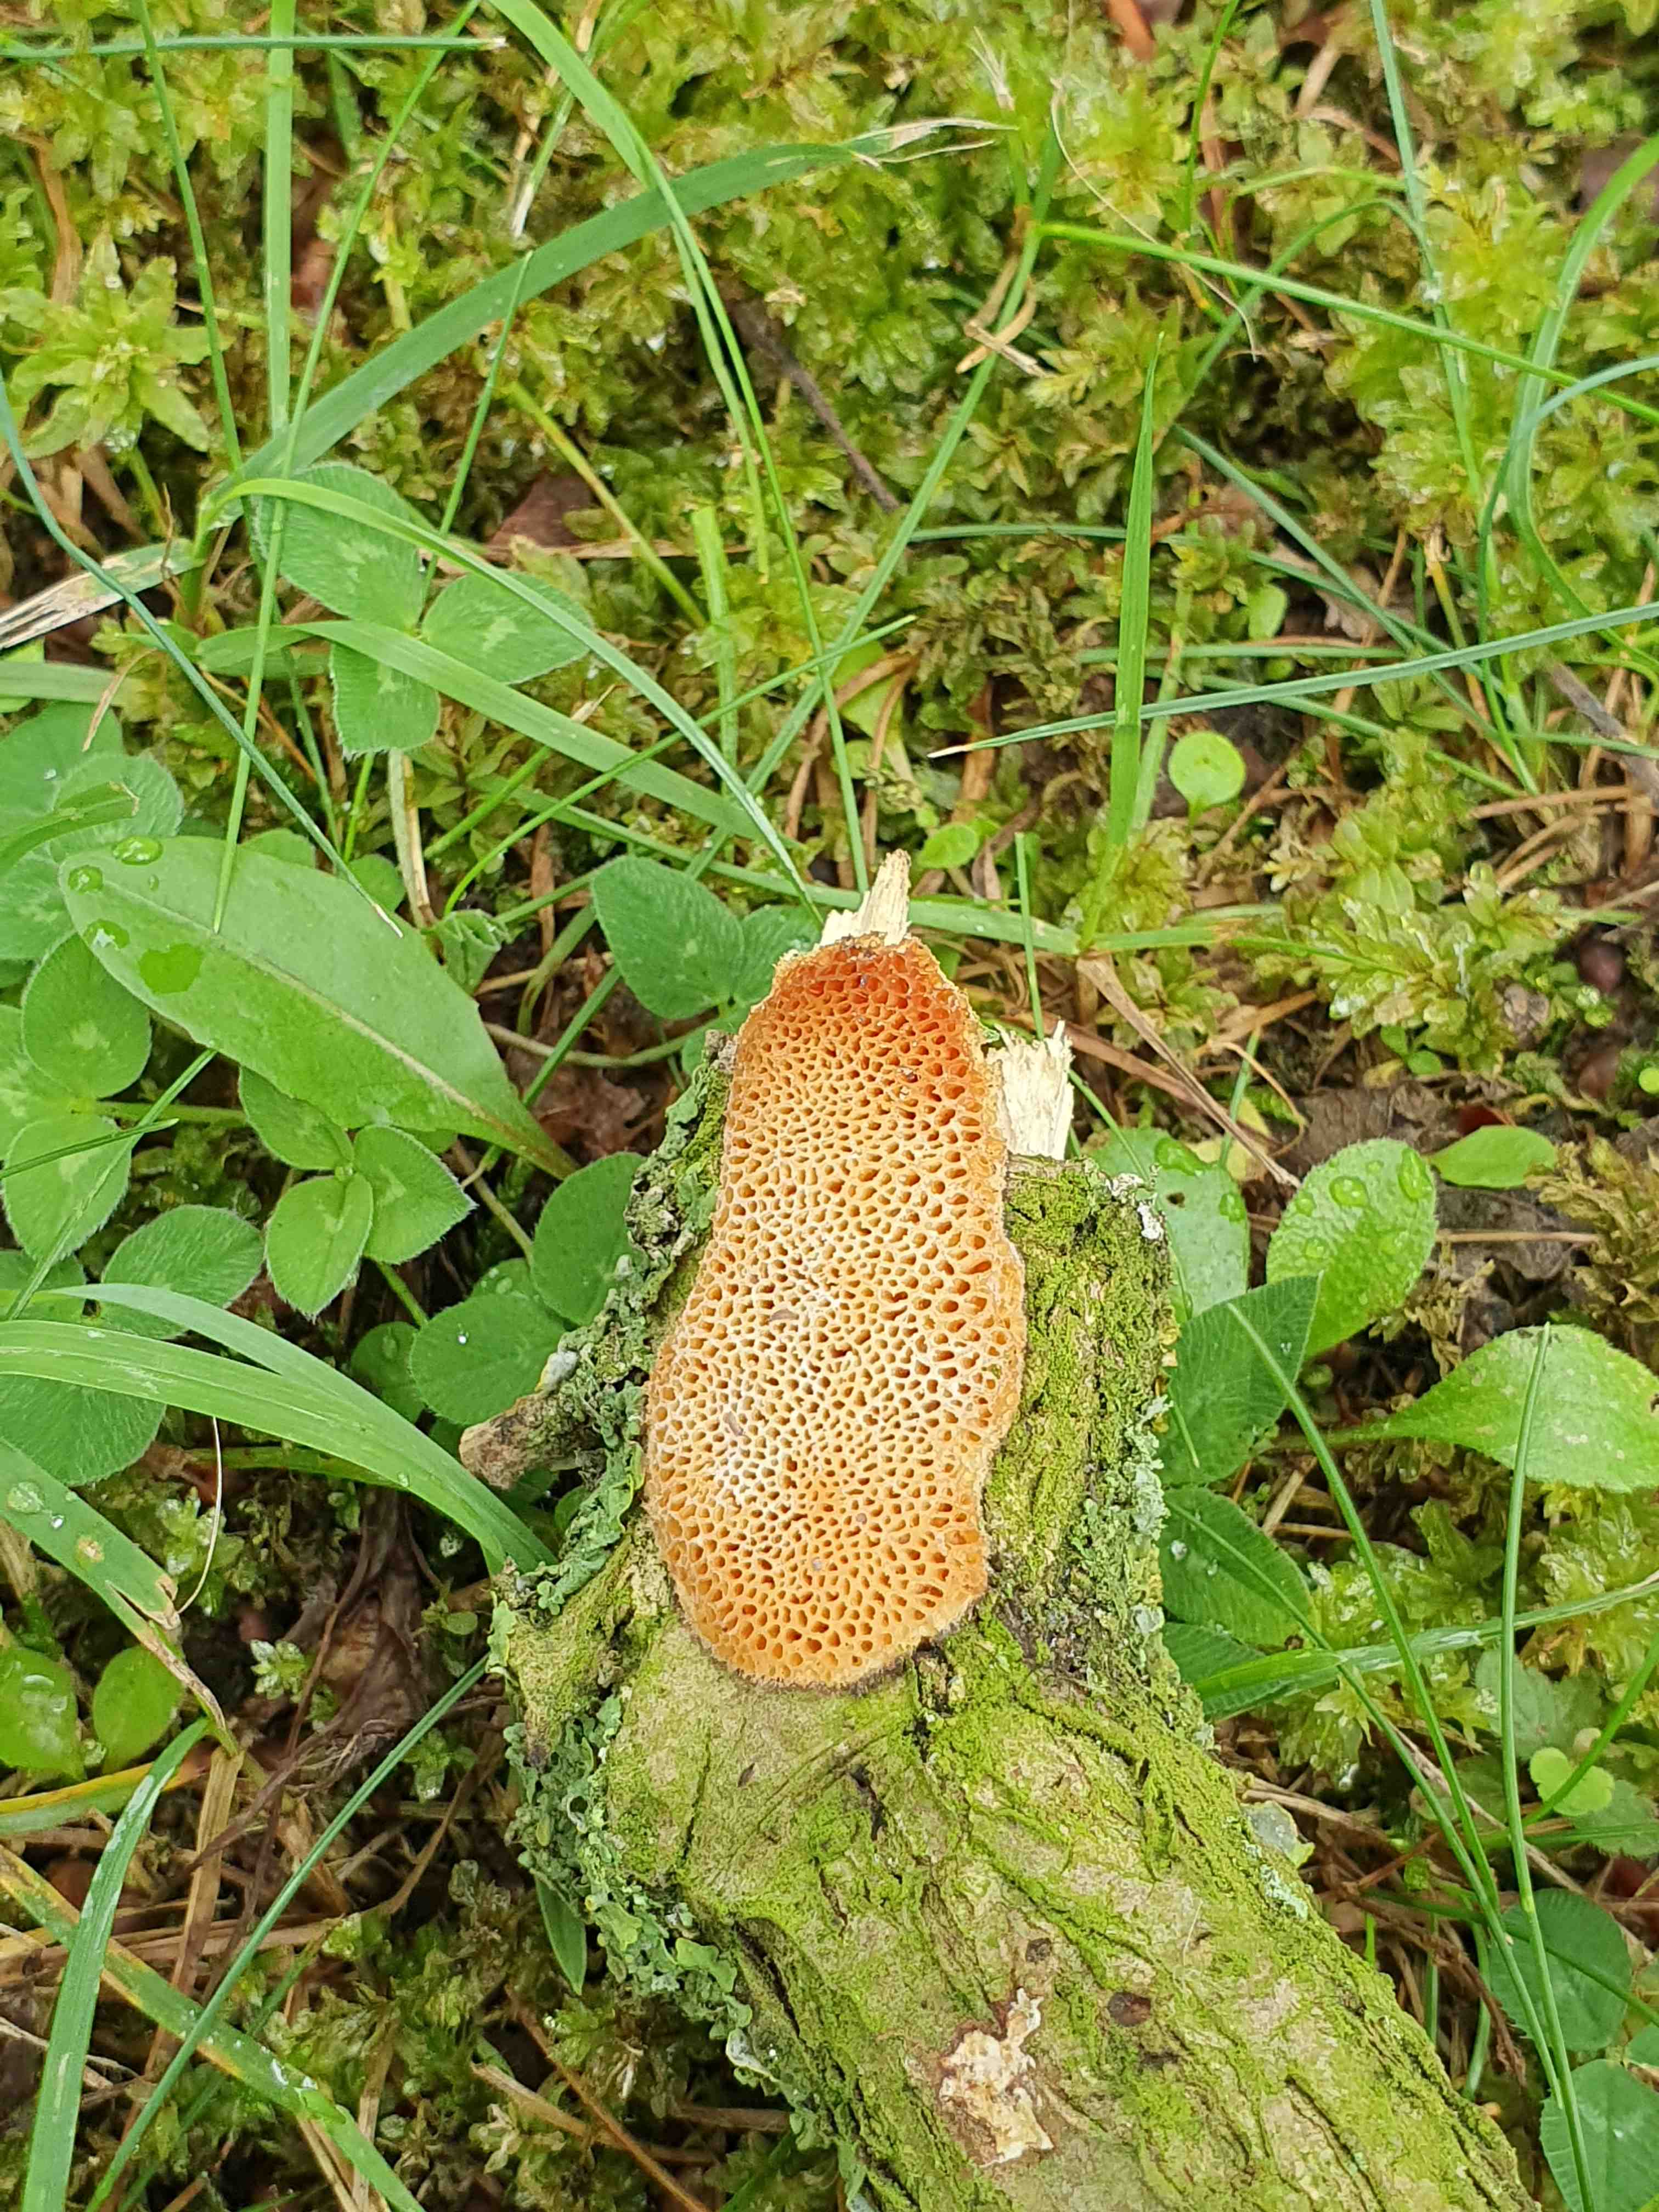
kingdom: Fungi
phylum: Basidiomycota
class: Agaricomycetes
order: Polyporales
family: Polyporaceae
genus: Szczepkamyces
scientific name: Szczepkamyces campestris
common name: hasselporesvamp
